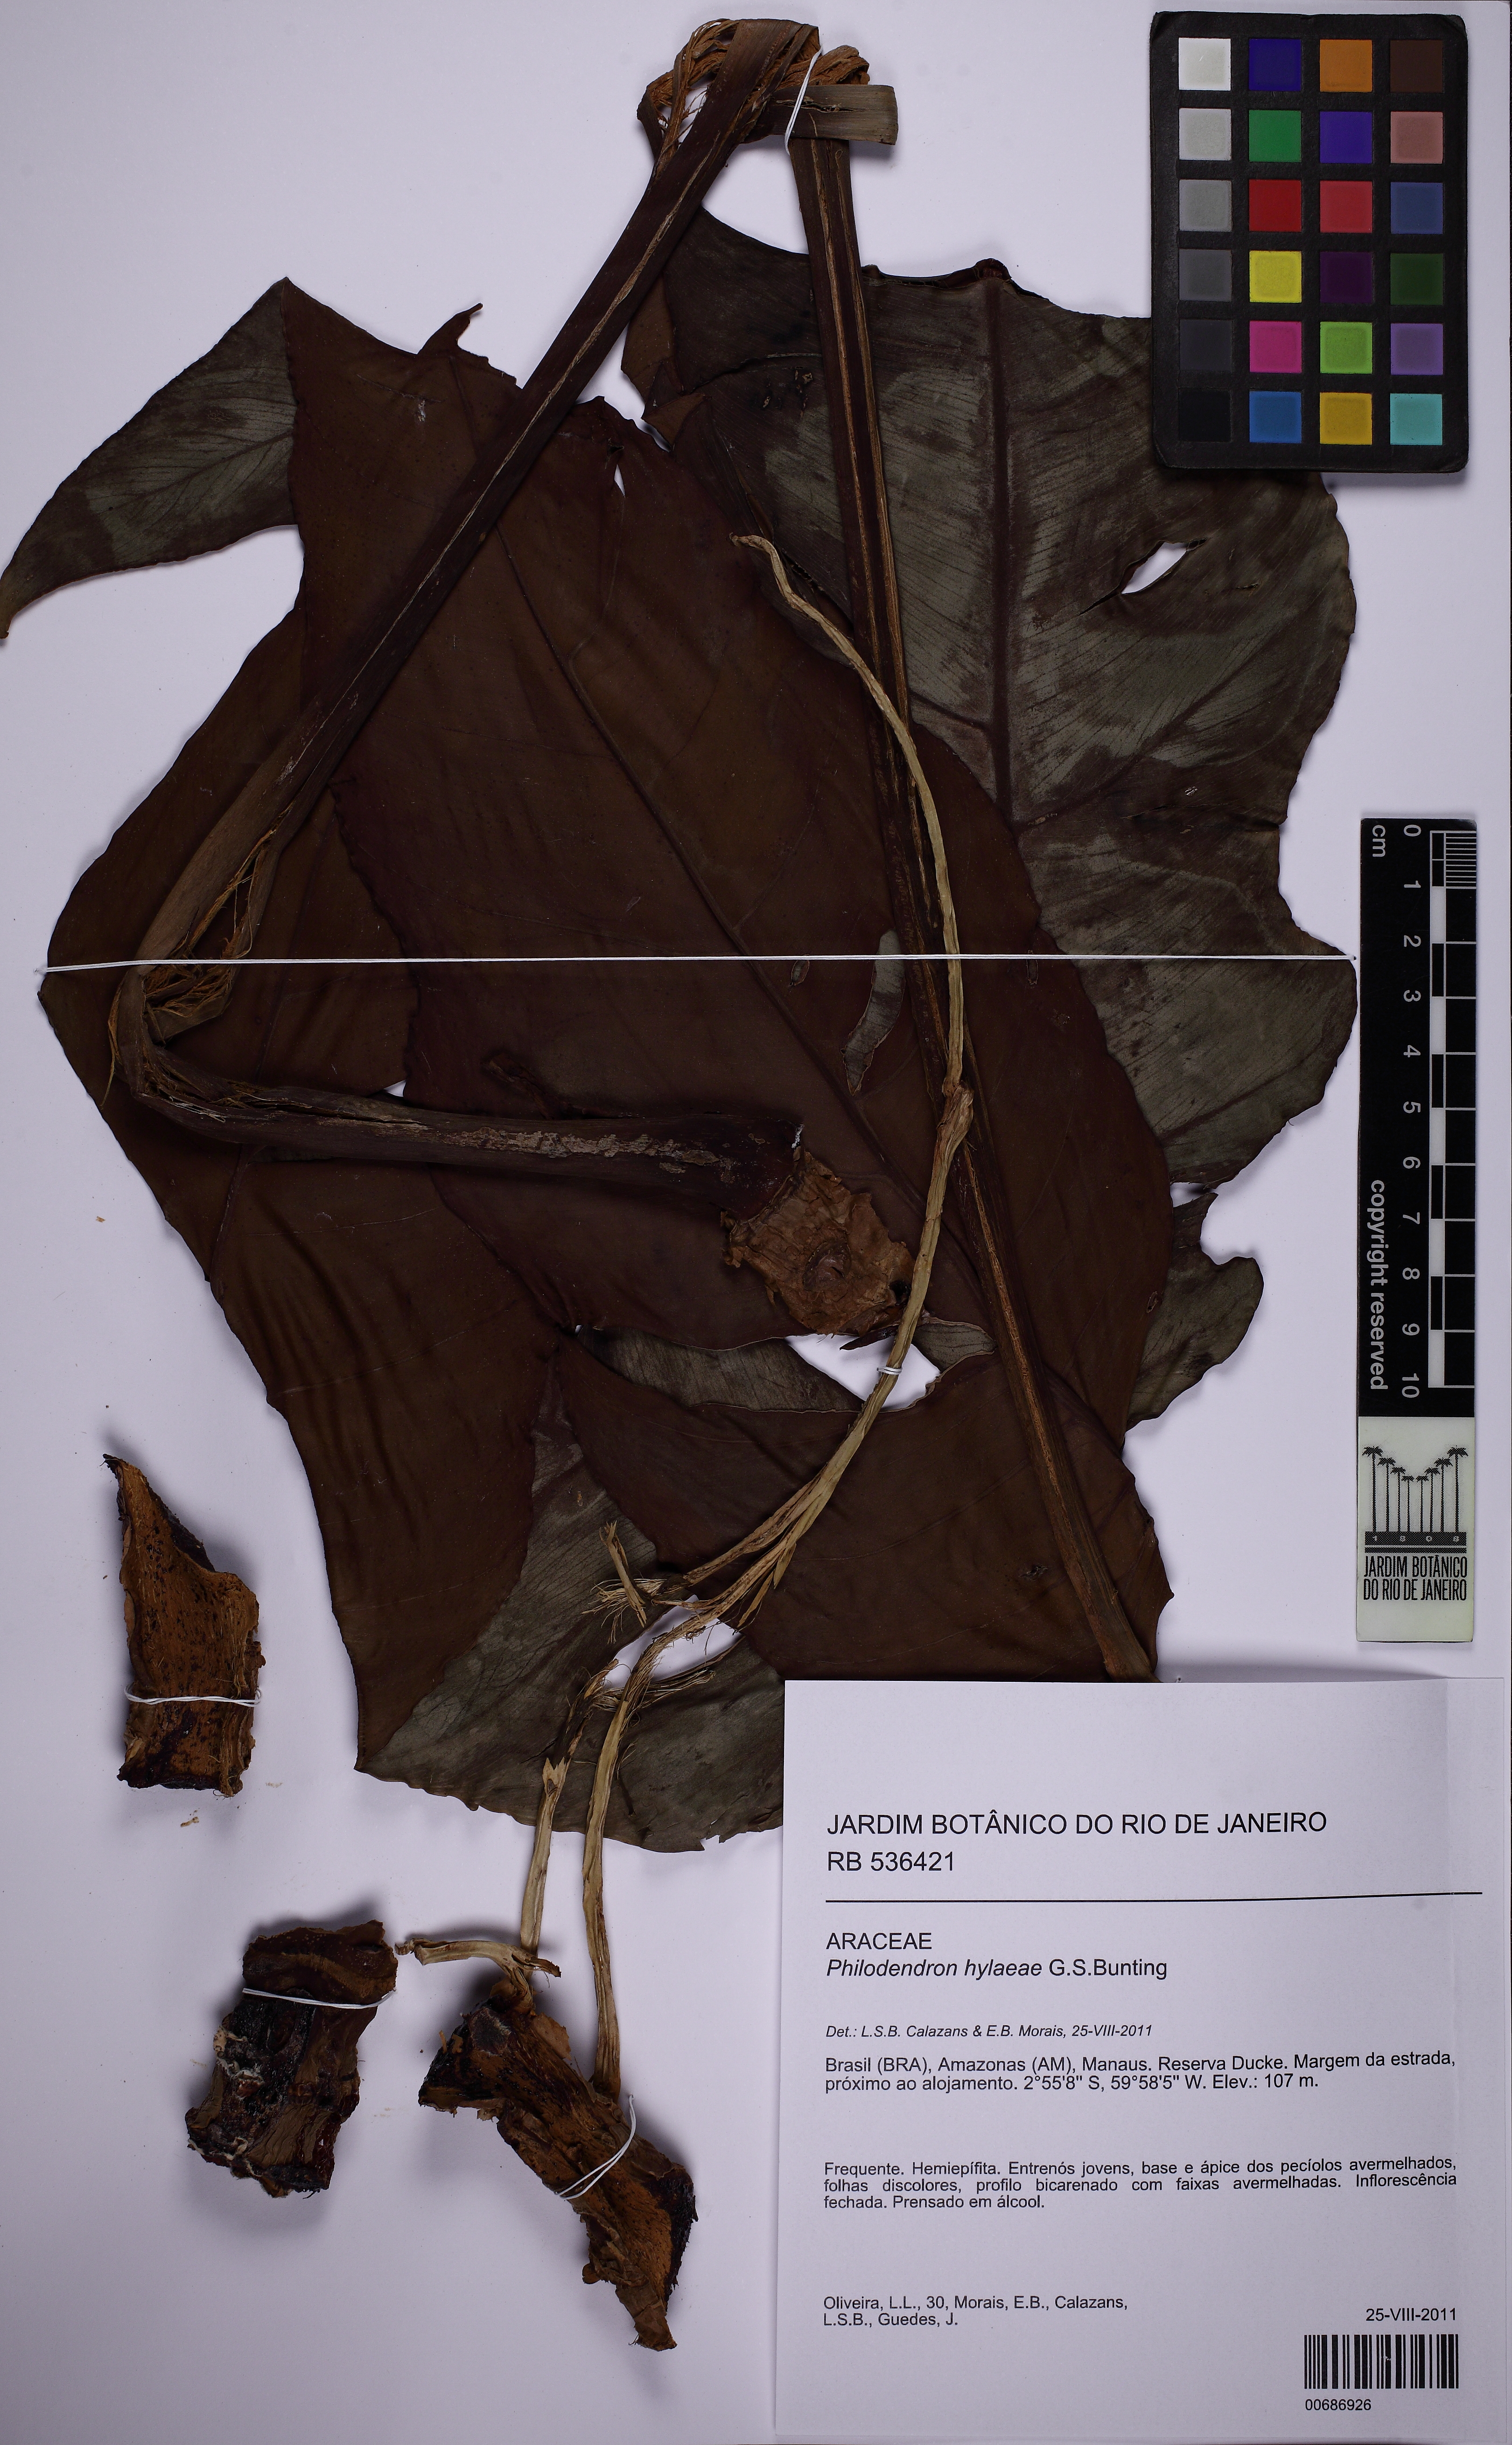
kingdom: Plantae
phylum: Tracheophyta
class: Liliopsida
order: Alismatales
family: Araceae
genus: Philodendron
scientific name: Philodendron hylaeae
